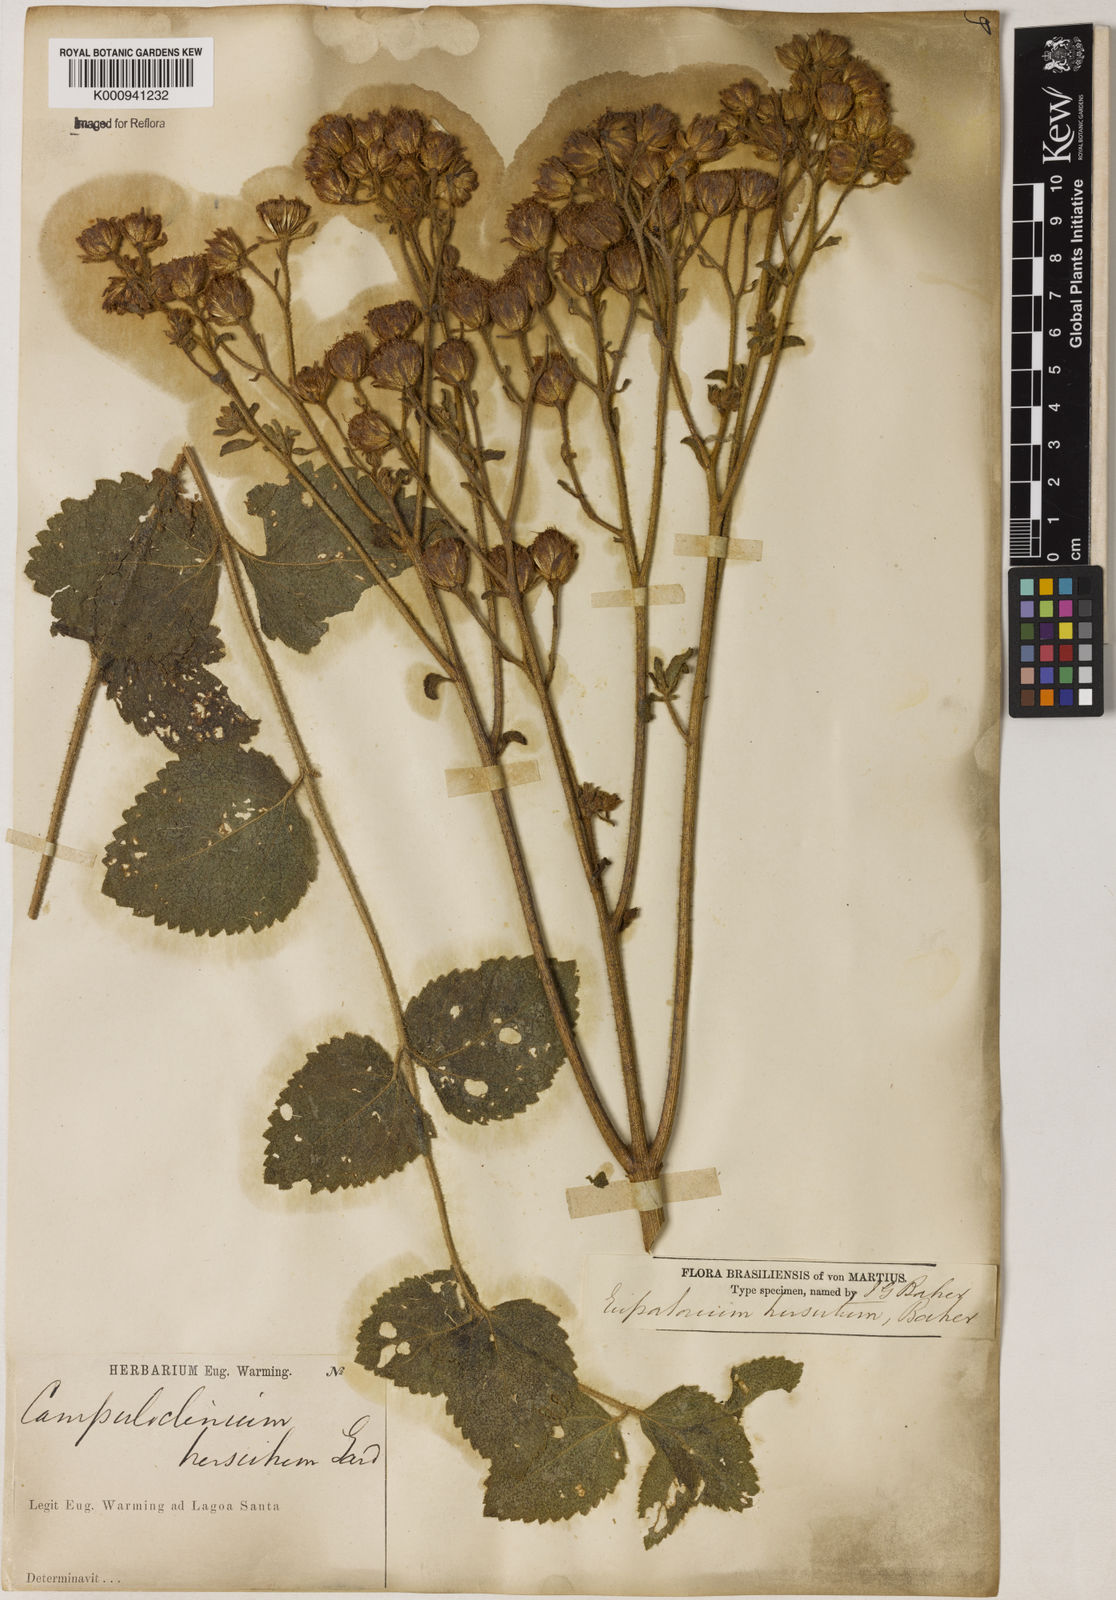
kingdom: Plantae
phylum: Tracheophyta
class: Magnoliopsida
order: Asterales
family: Asteraceae
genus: Campuloclinium
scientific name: Campuloclinium hirsutum
